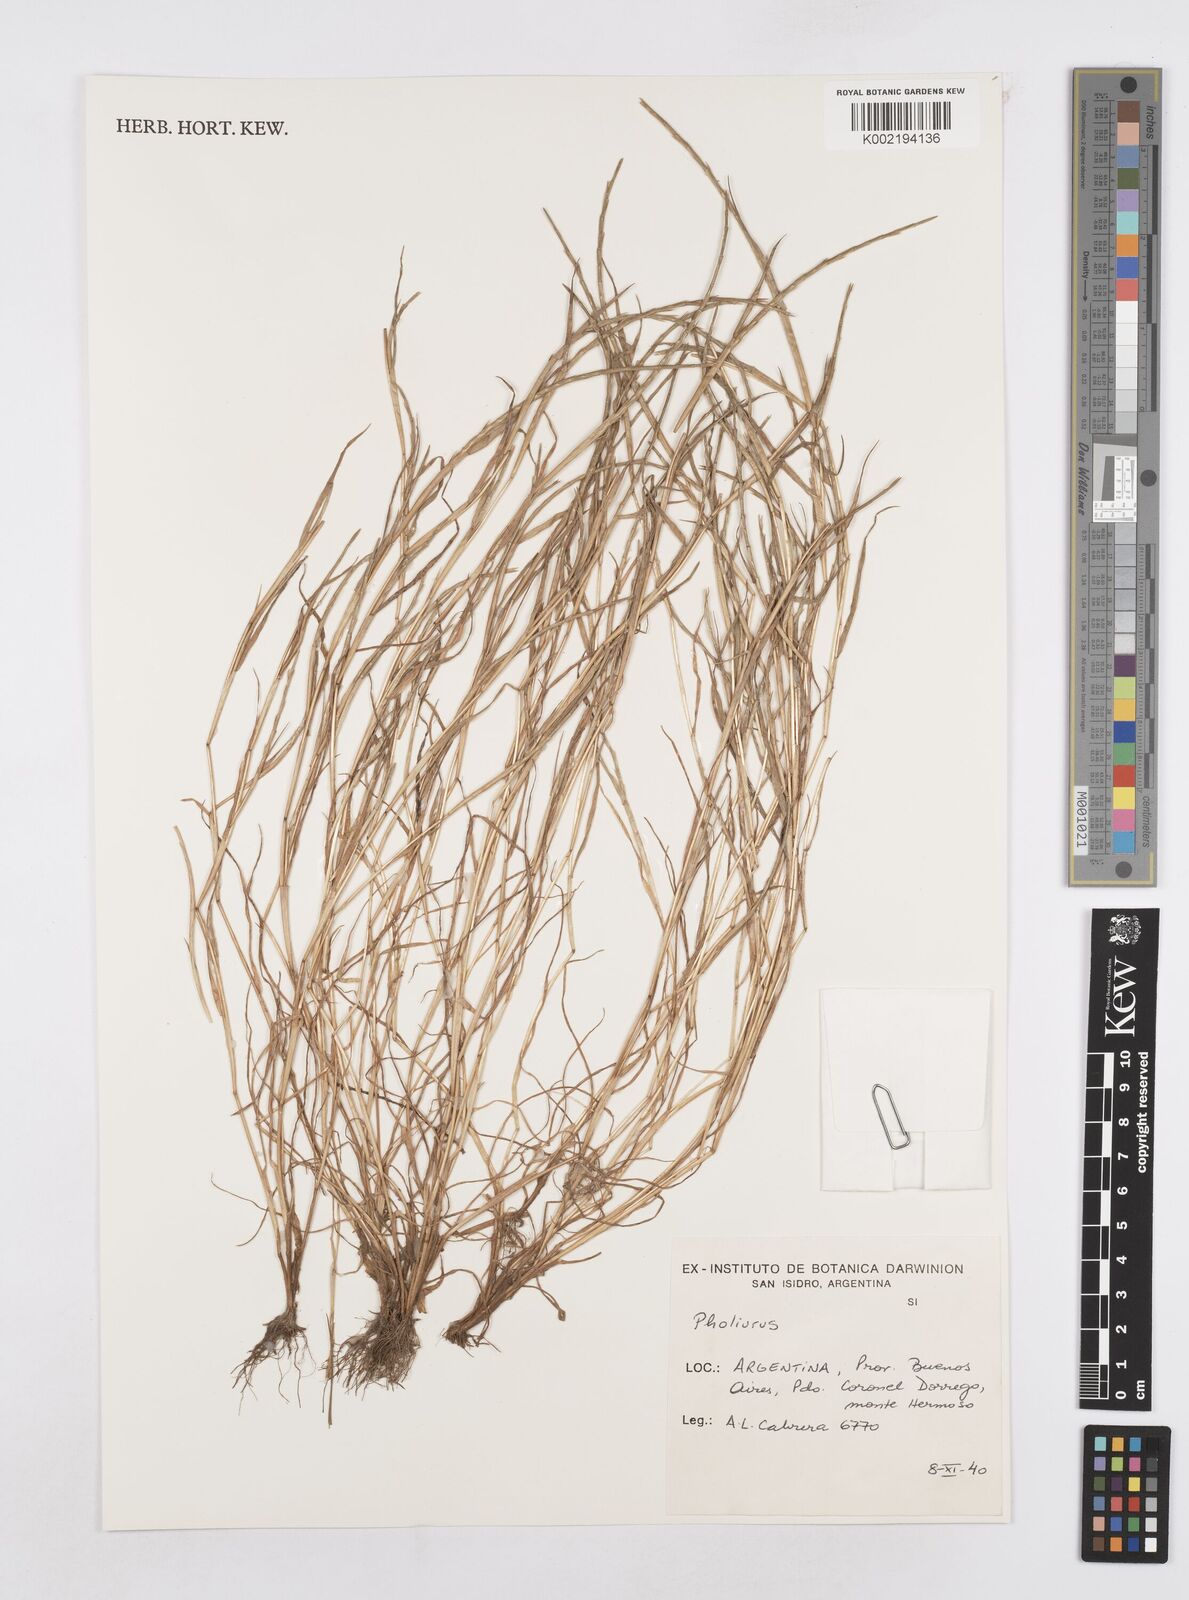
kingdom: Plantae
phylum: Tracheophyta
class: Liliopsida
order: Poales
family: Poaceae
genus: Parapholis
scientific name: Parapholis incurva
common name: Curved sicklegrass
